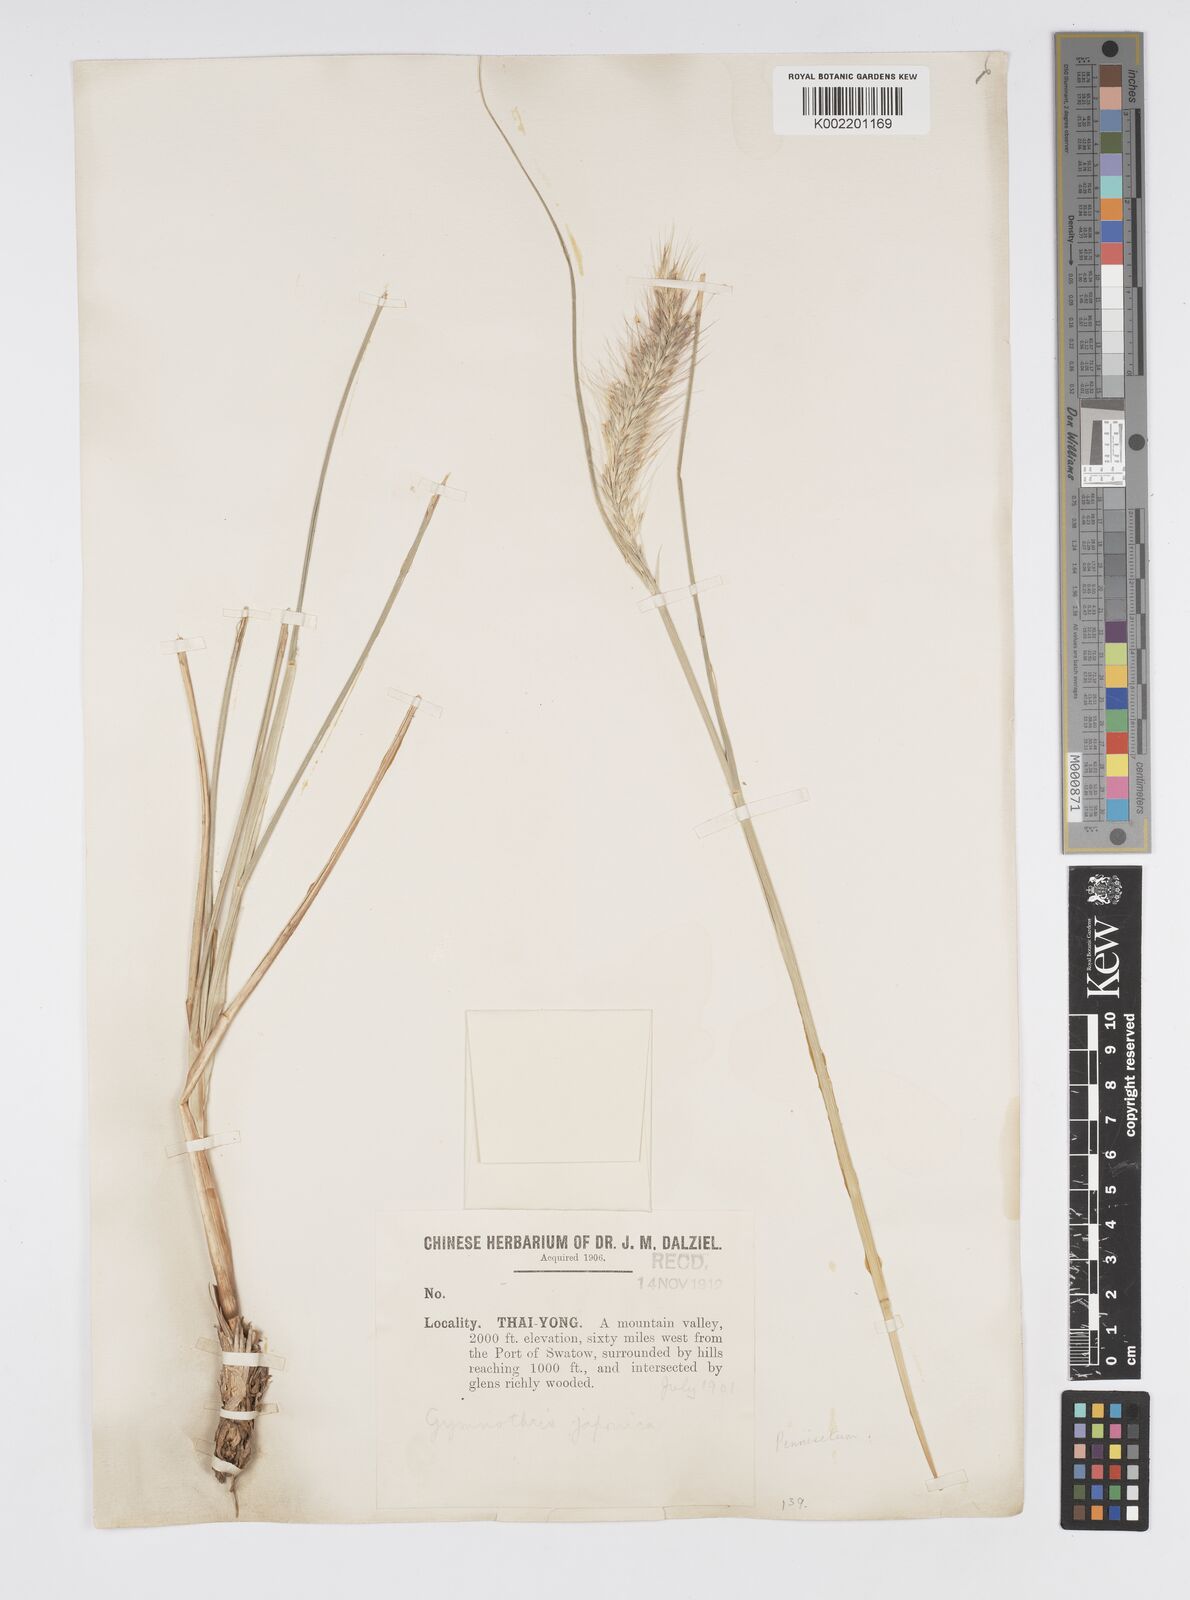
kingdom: Plantae
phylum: Tracheophyta
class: Liliopsida
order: Poales
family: Poaceae
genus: Cenchrus
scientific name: Cenchrus alopecuroides
